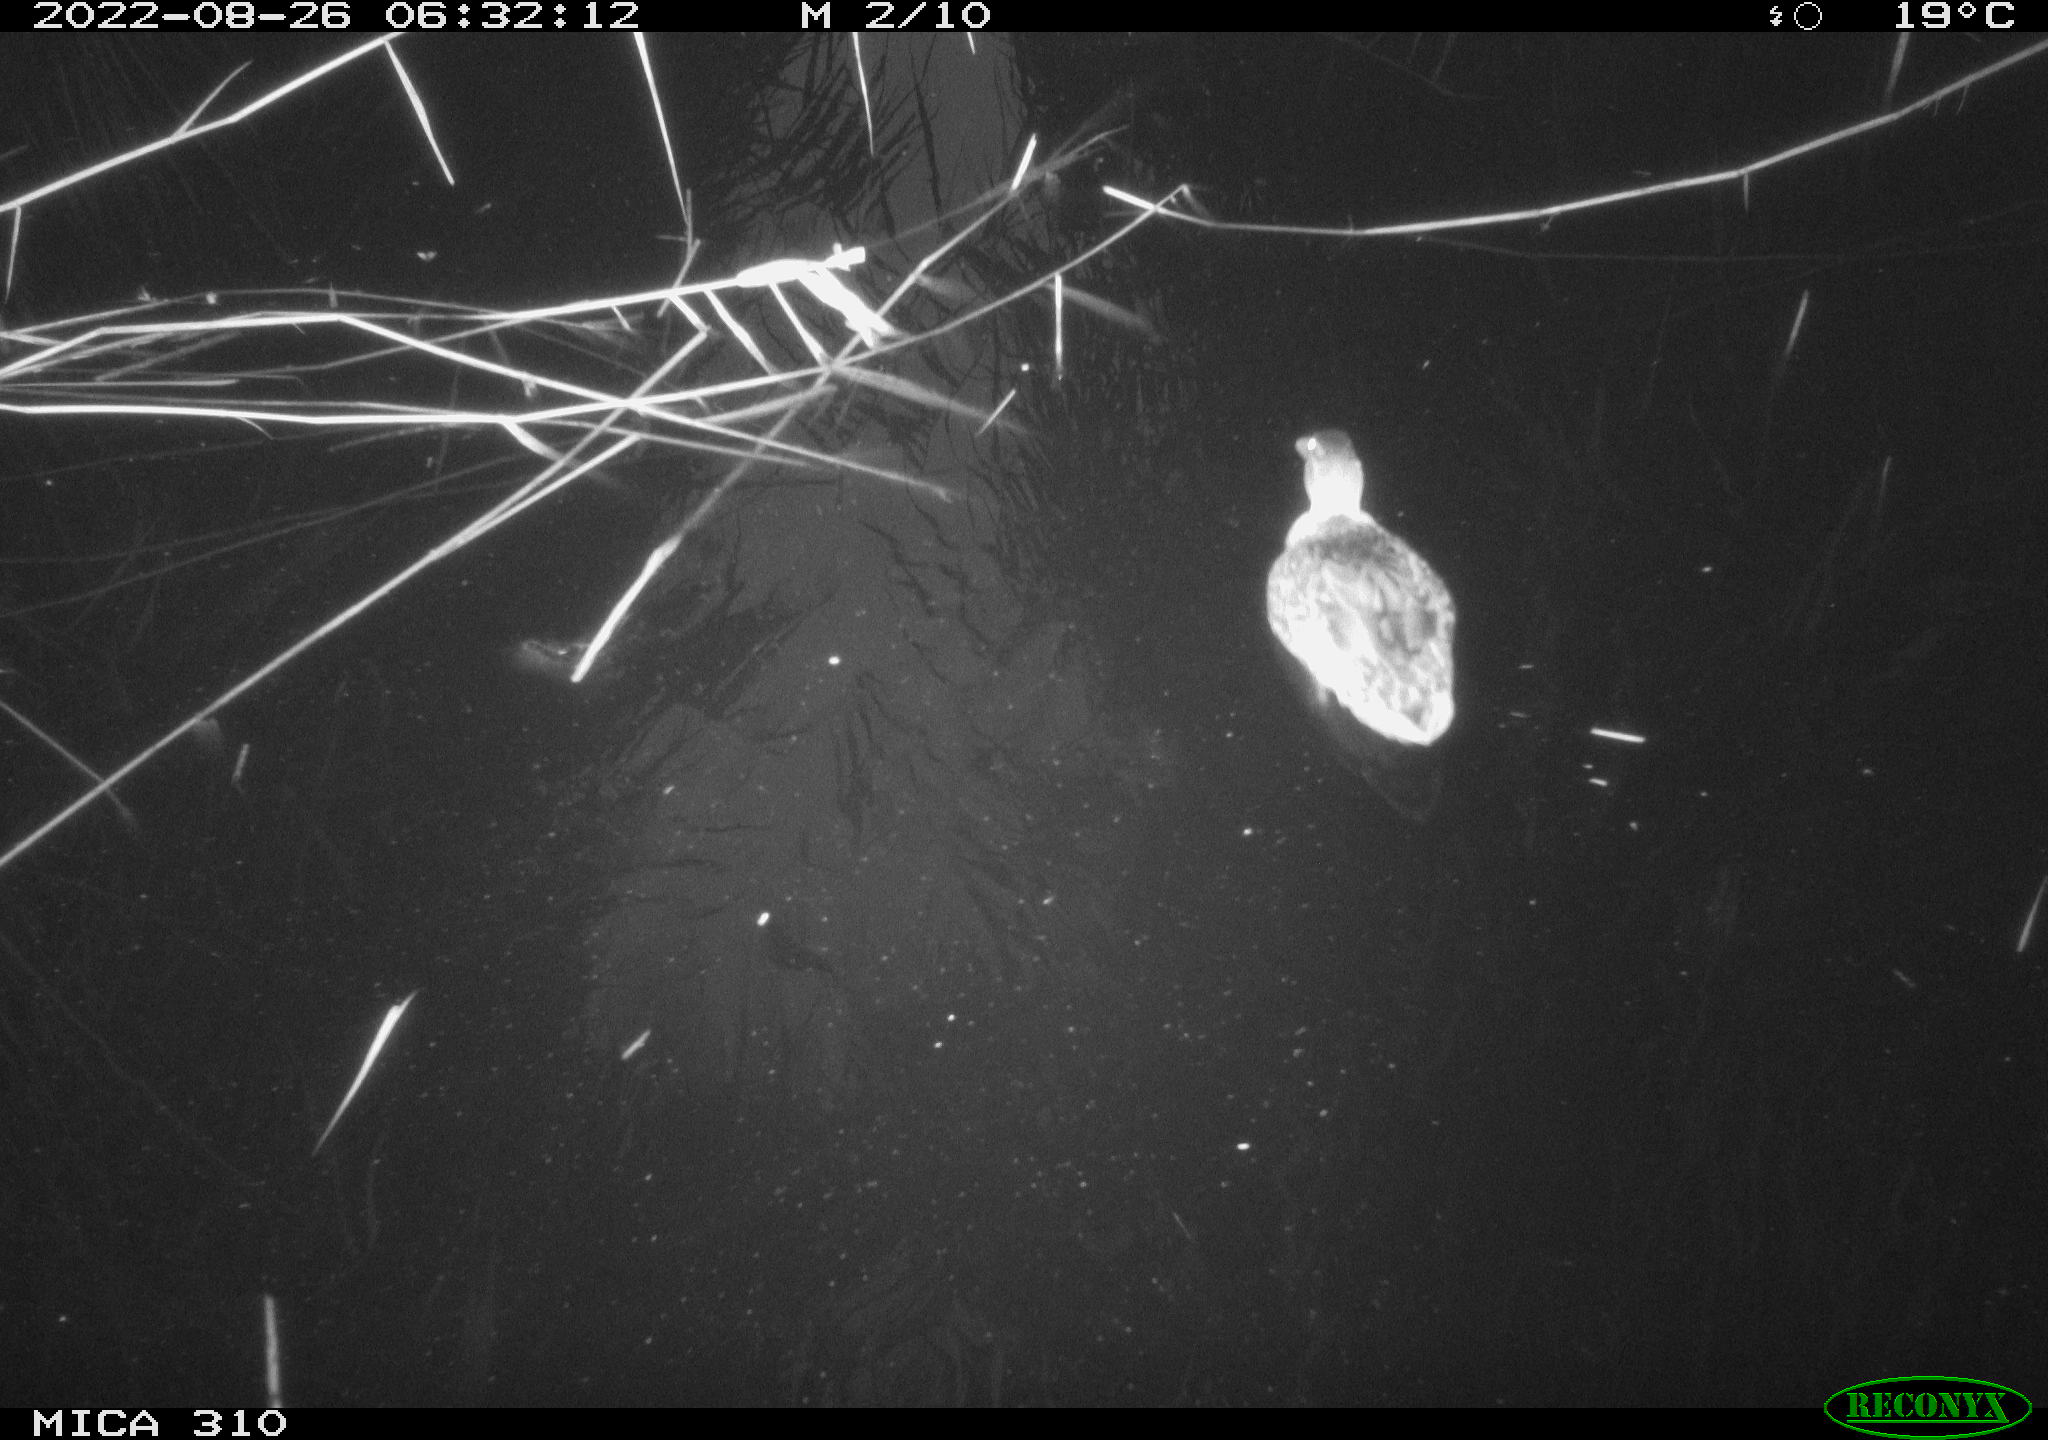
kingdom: Animalia
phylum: Chordata
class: Aves
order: Anseriformes
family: Anatidae
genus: Anas
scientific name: Anas platyrhynchos
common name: Mallard
